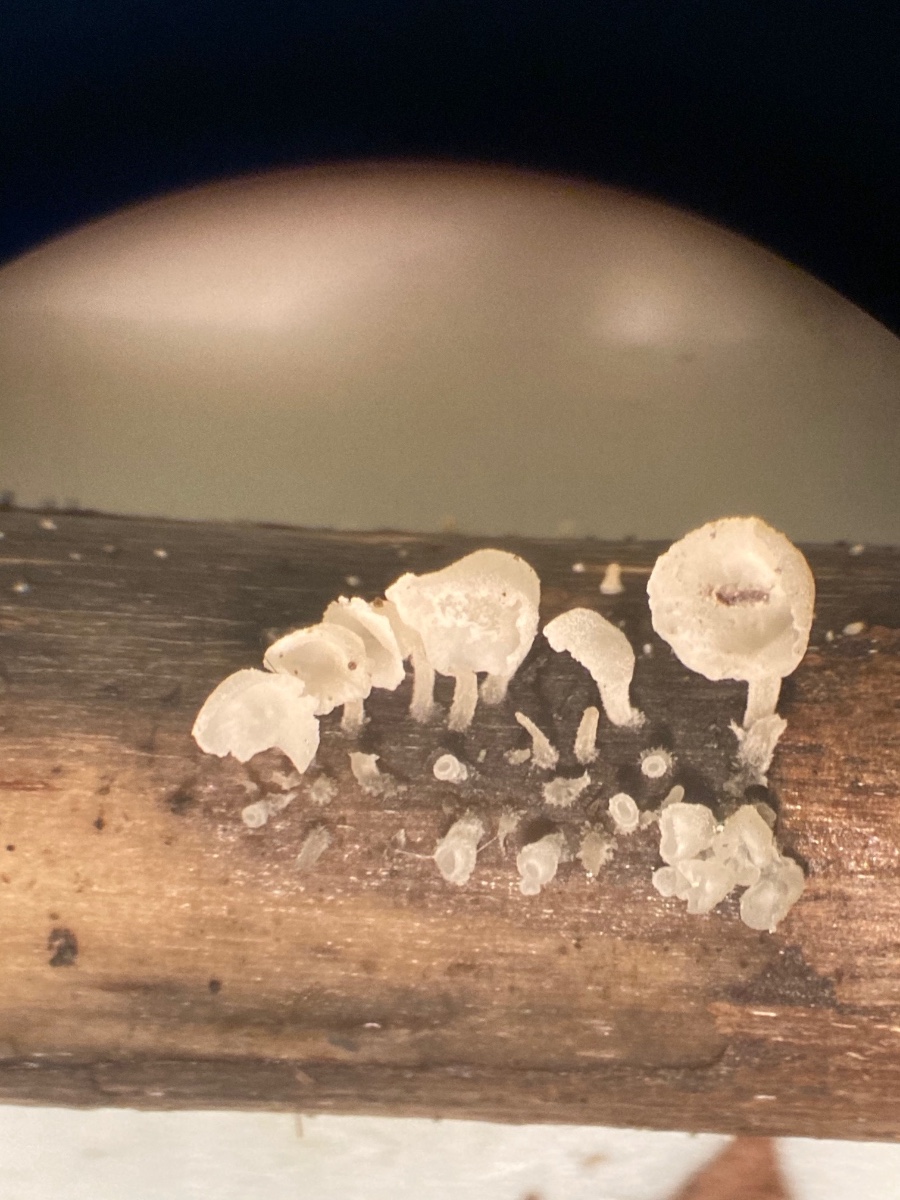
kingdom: Fungi
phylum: Basidiomycota
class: Agaricomycetes
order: Agaricales
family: Marasmiaceae
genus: Calyptella
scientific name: Calyptella capula
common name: hvidlig nældehue
